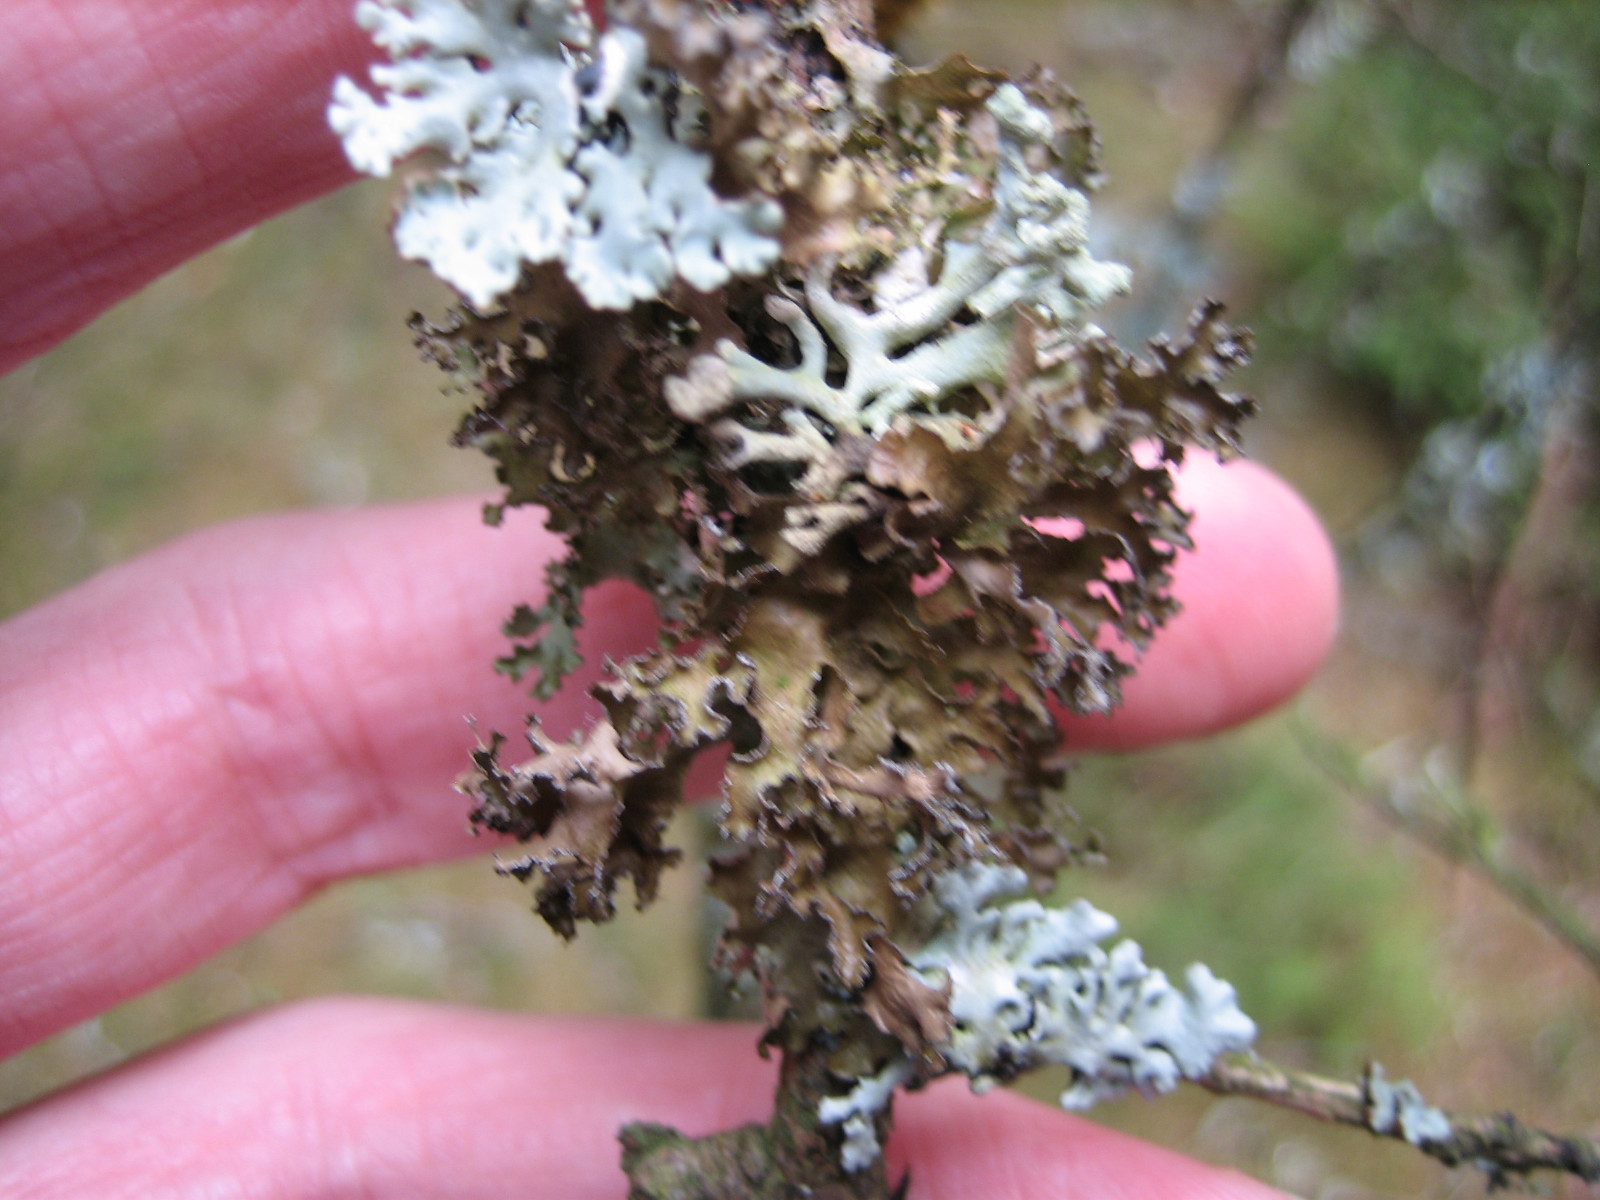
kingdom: Fungi
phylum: Ascomycota
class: Lecanoromycetes
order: Lecanorales
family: Parmeliaceae
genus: Nephromopsis
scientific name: Nephromopsis chlorophylla
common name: olivenbrun kruslav
